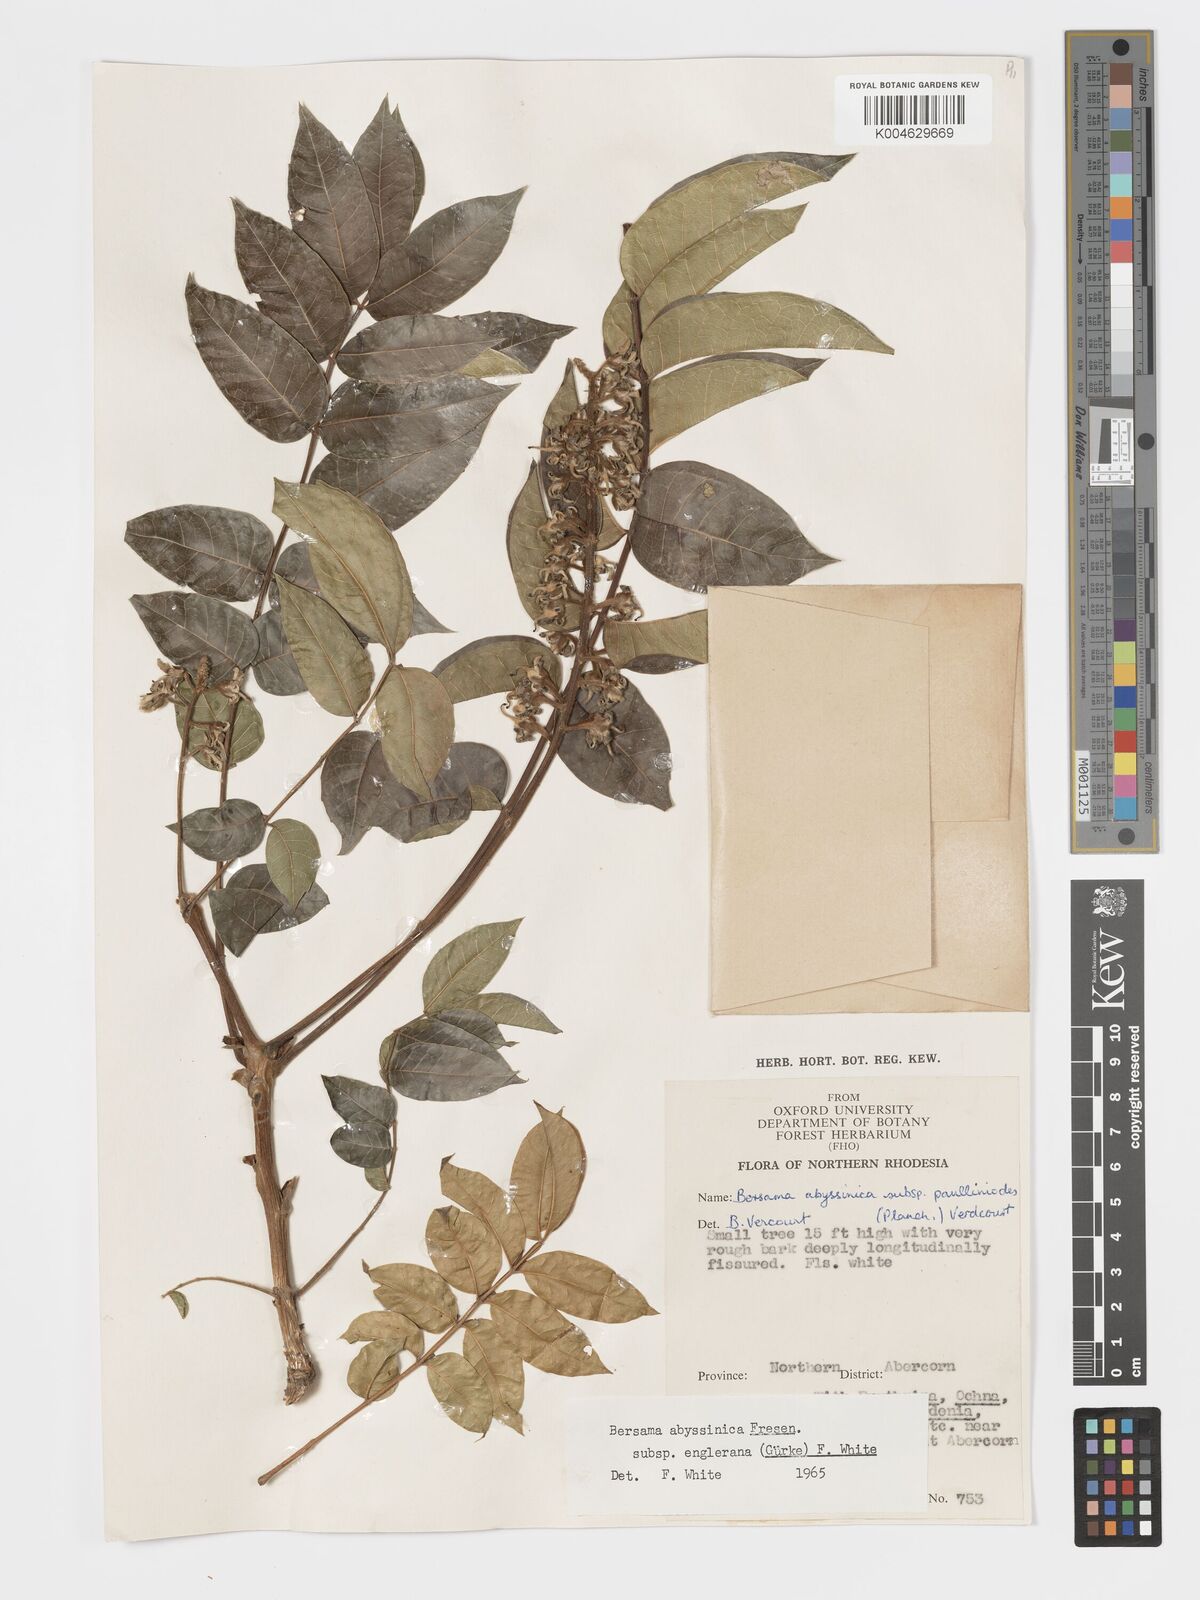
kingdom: Plantae
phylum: Tracheophyta
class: Magnoliopsida
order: Geraniales
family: Melianthaceae
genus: Bersama
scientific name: Bersama abyssinica
